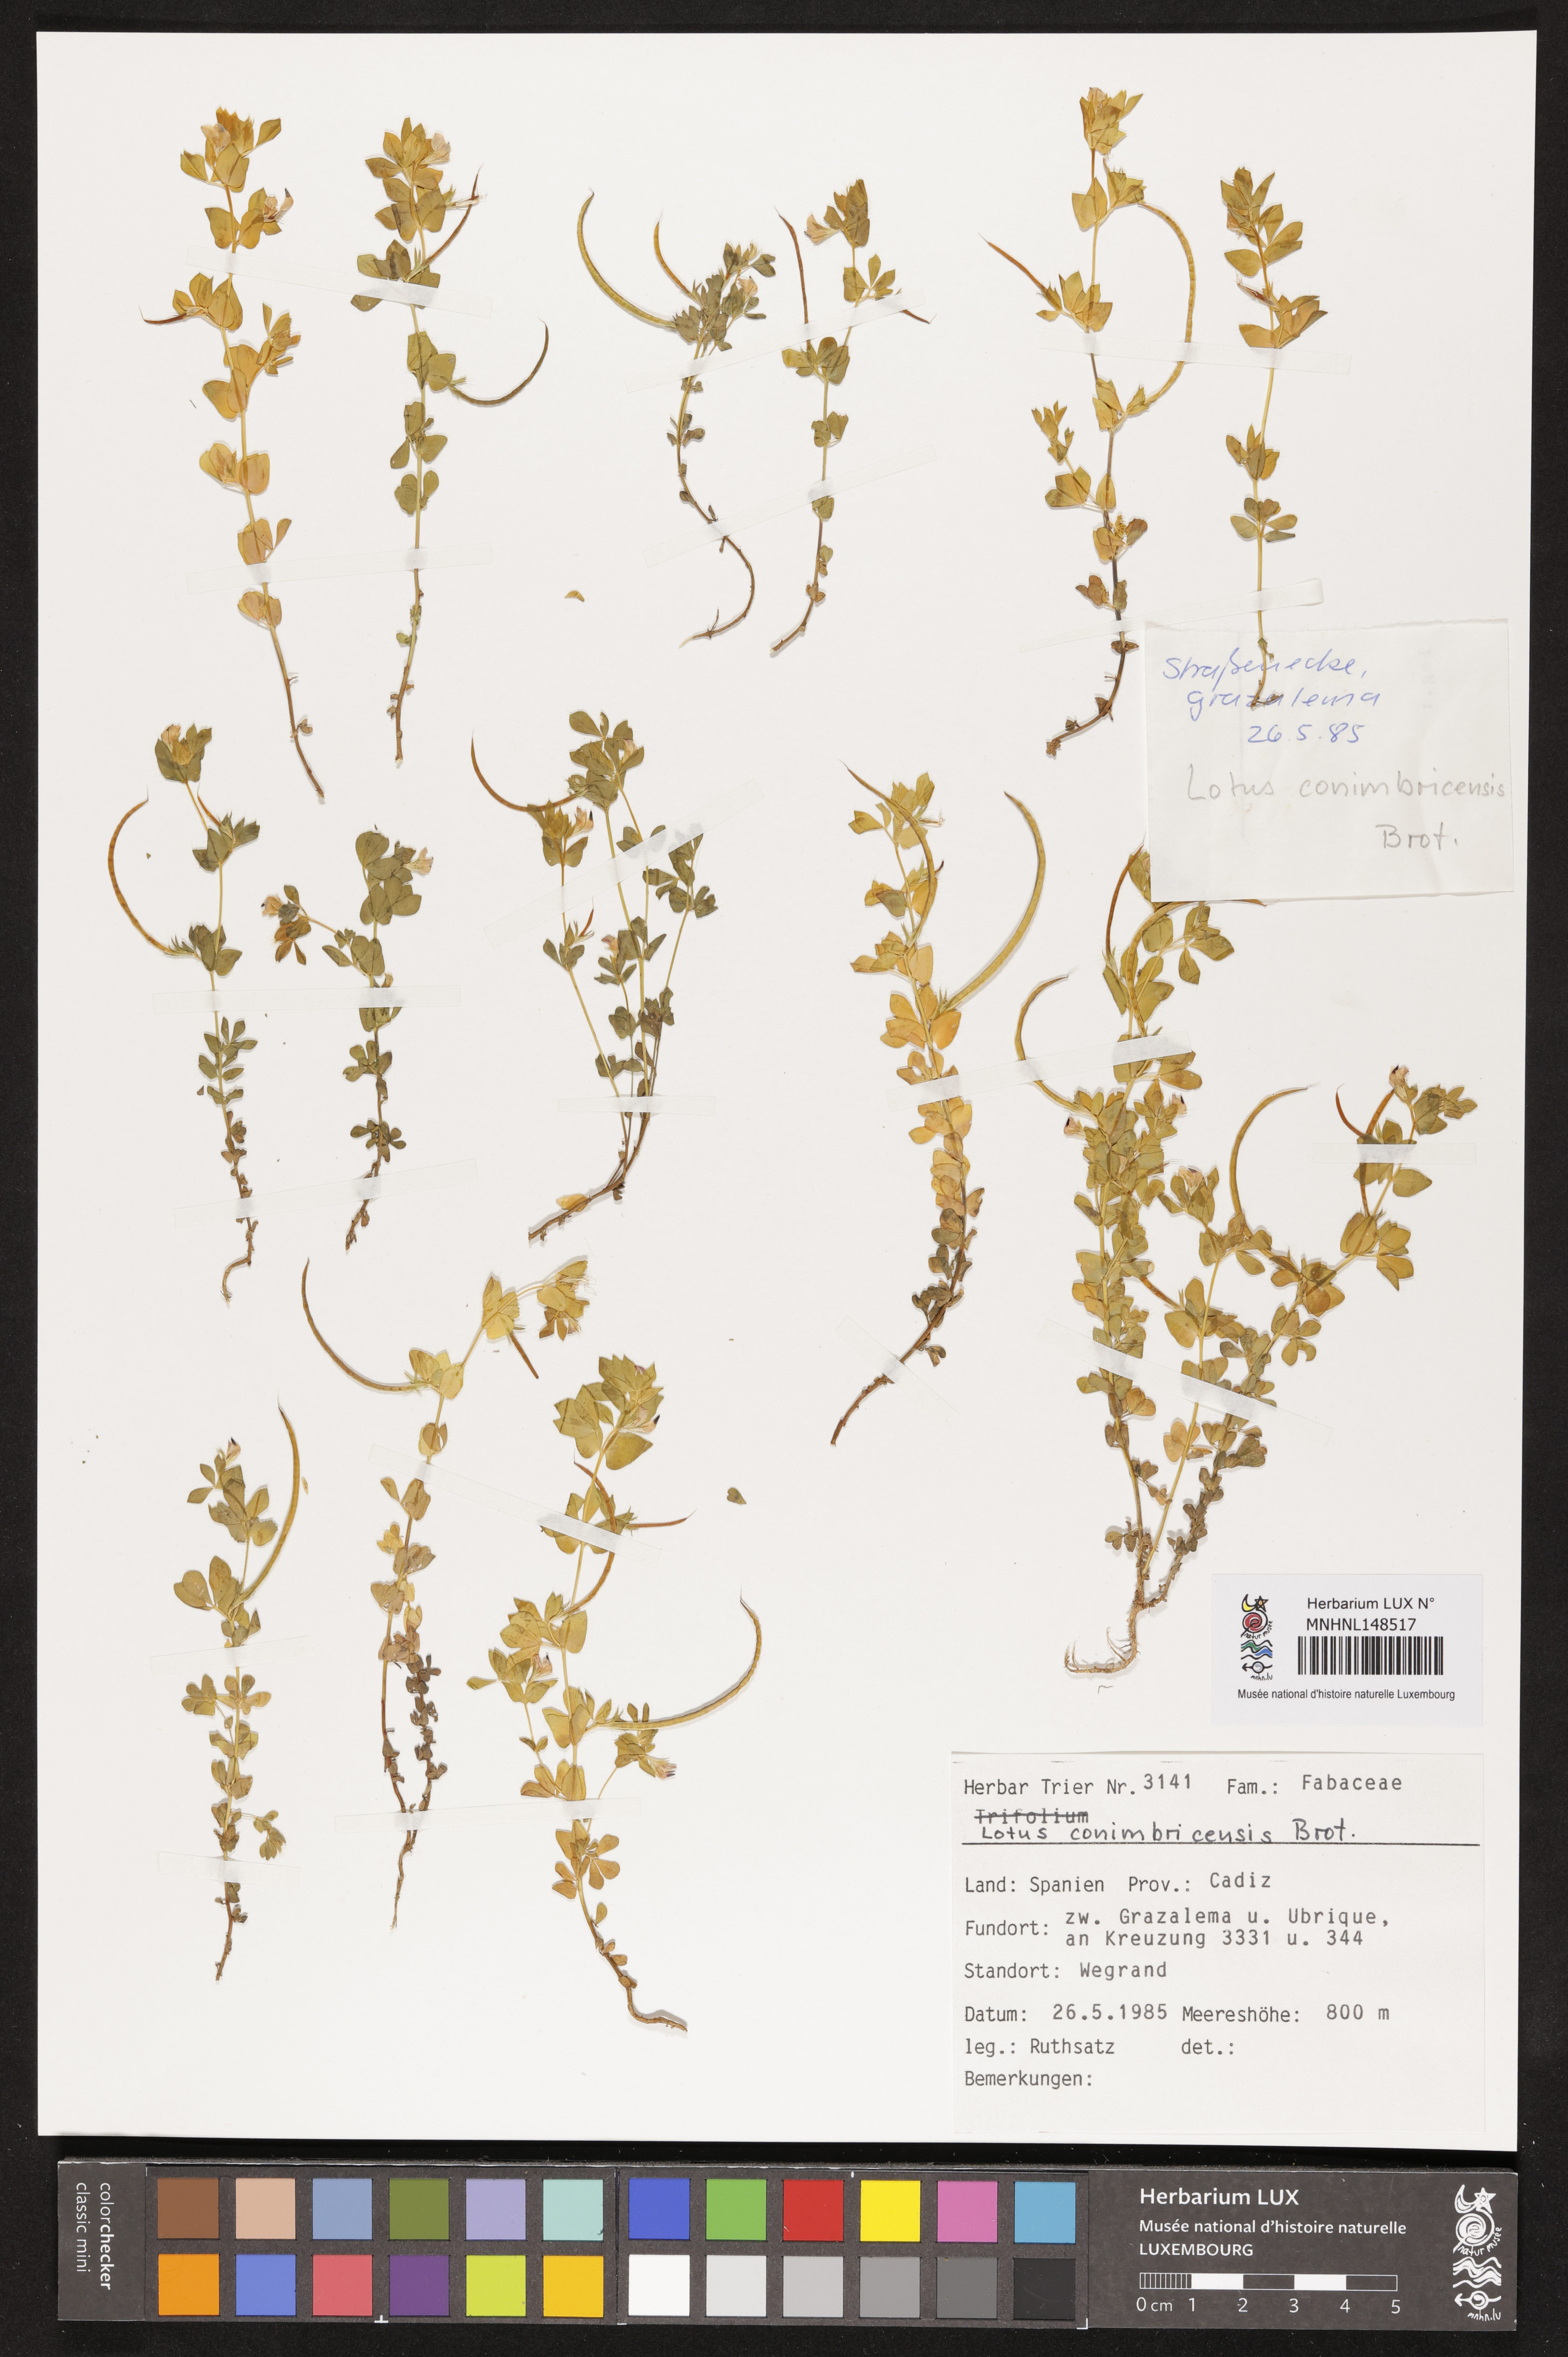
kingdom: Plantae
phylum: Tracheophyta
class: Magnoliopsida
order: Fabales
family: Fabaceae
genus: Lotus
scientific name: Lotus conimbricensis
